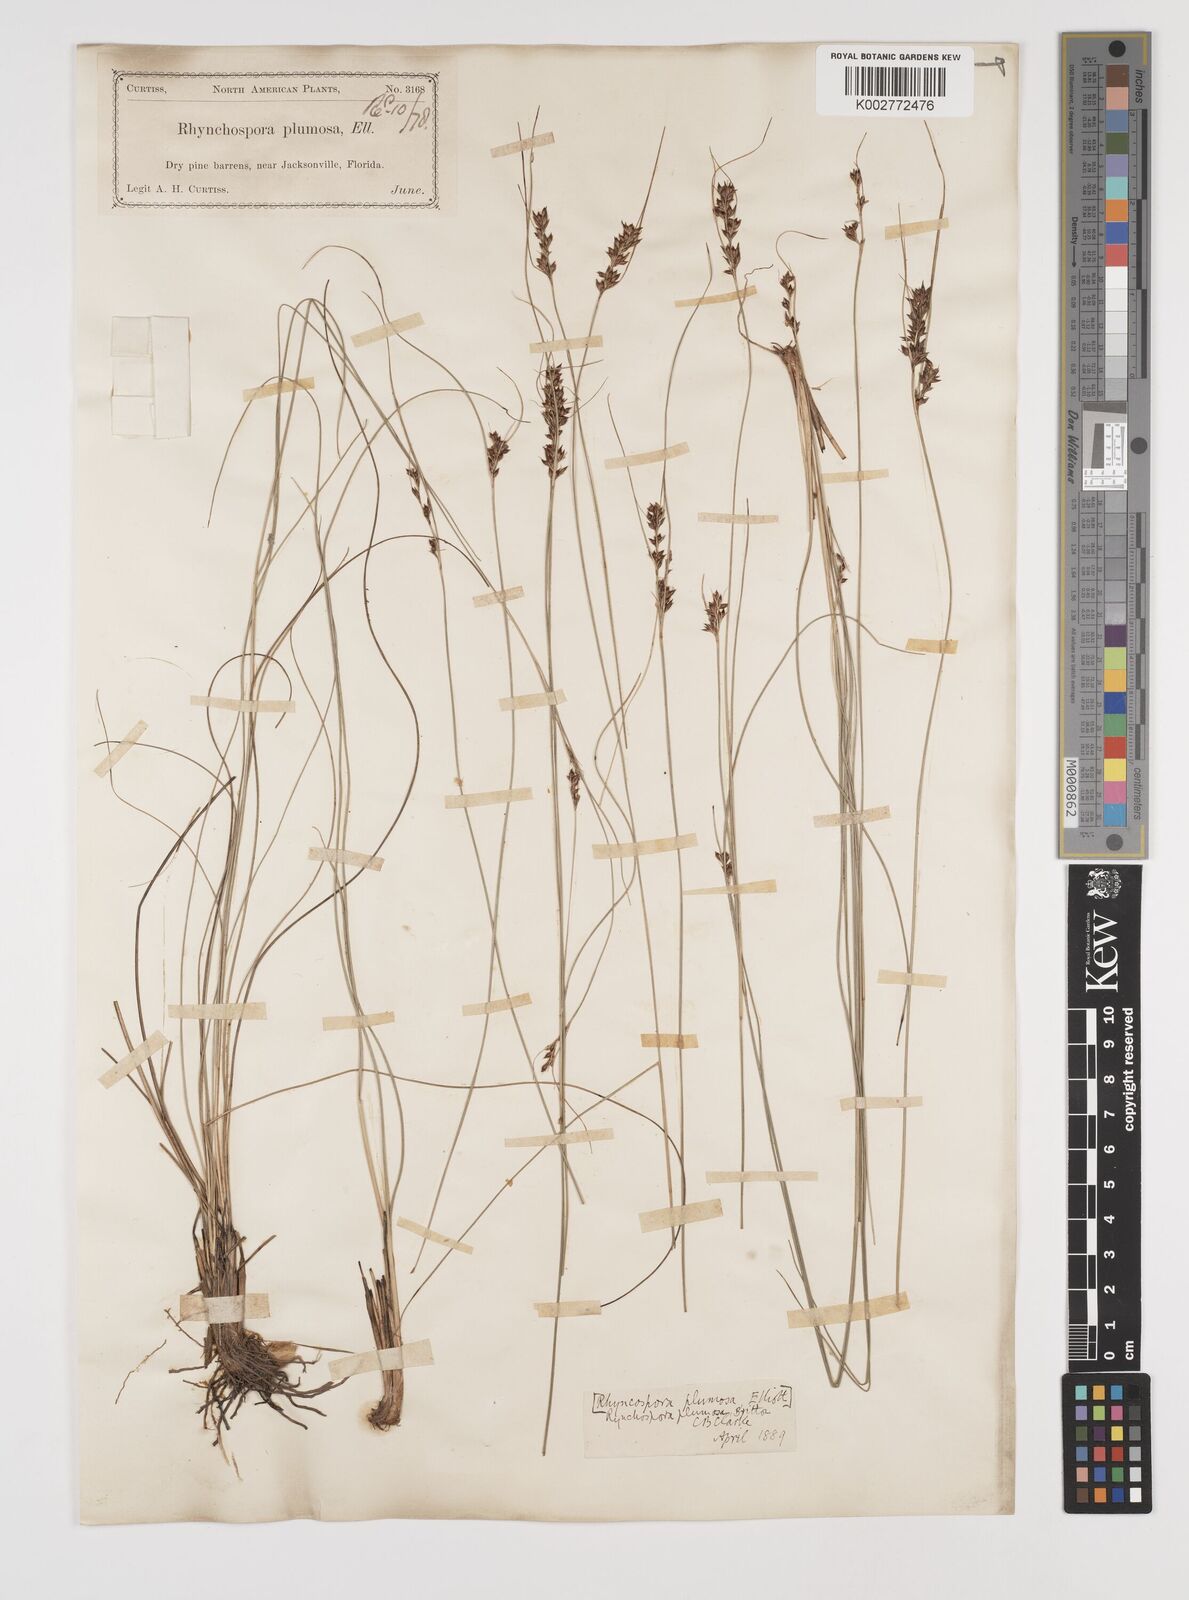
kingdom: Plantae
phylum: Tracheophyta
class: Liliopsida
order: Poales
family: Cyperaceae
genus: Rhynchospora
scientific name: Rhynchospora plumosa
